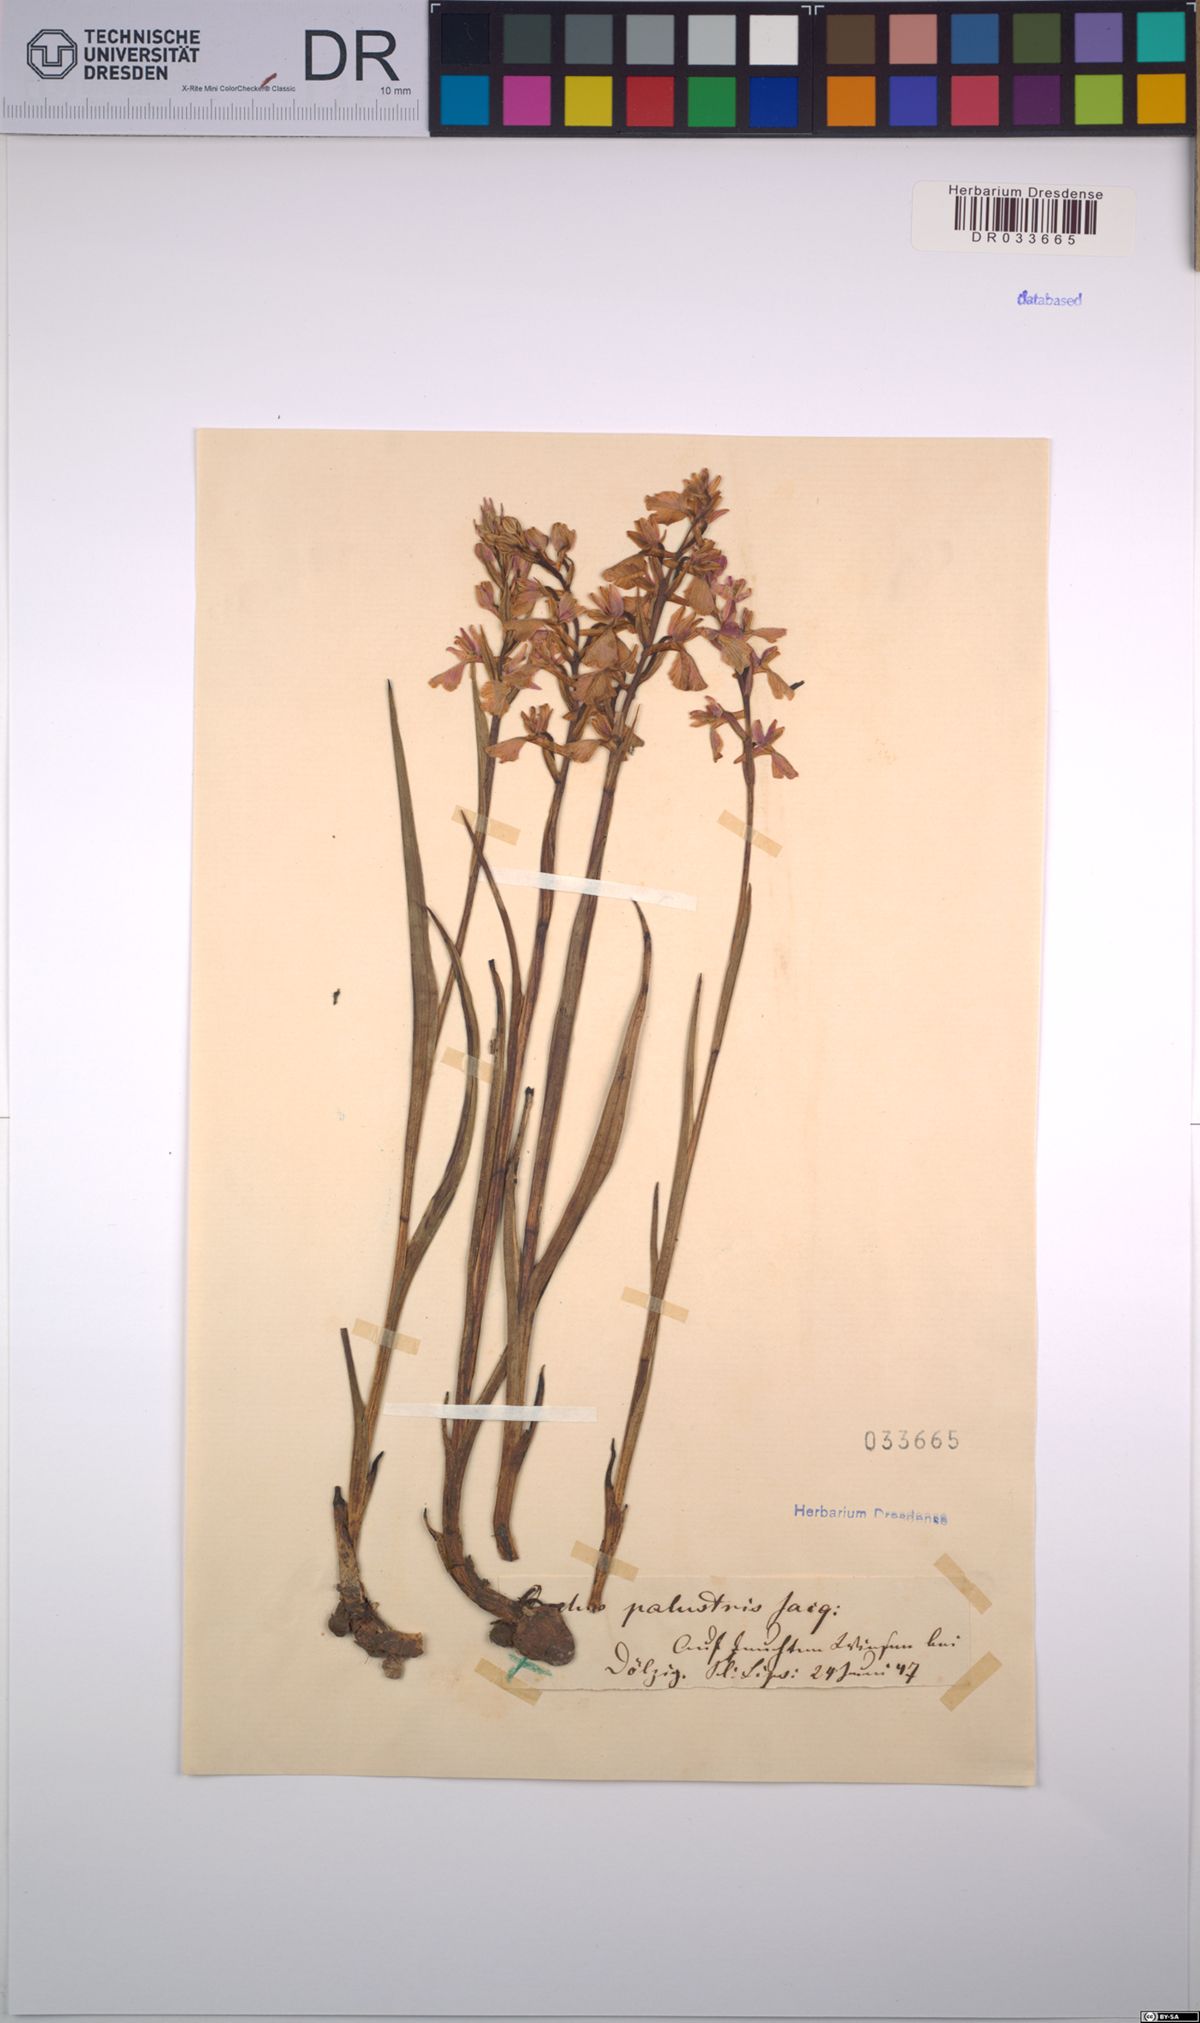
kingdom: Plantae
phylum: Tracheophyta
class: Liliopsida
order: Asparagales
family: Orchidaceae
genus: Anacamptis
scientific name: Anacamptis palustris
